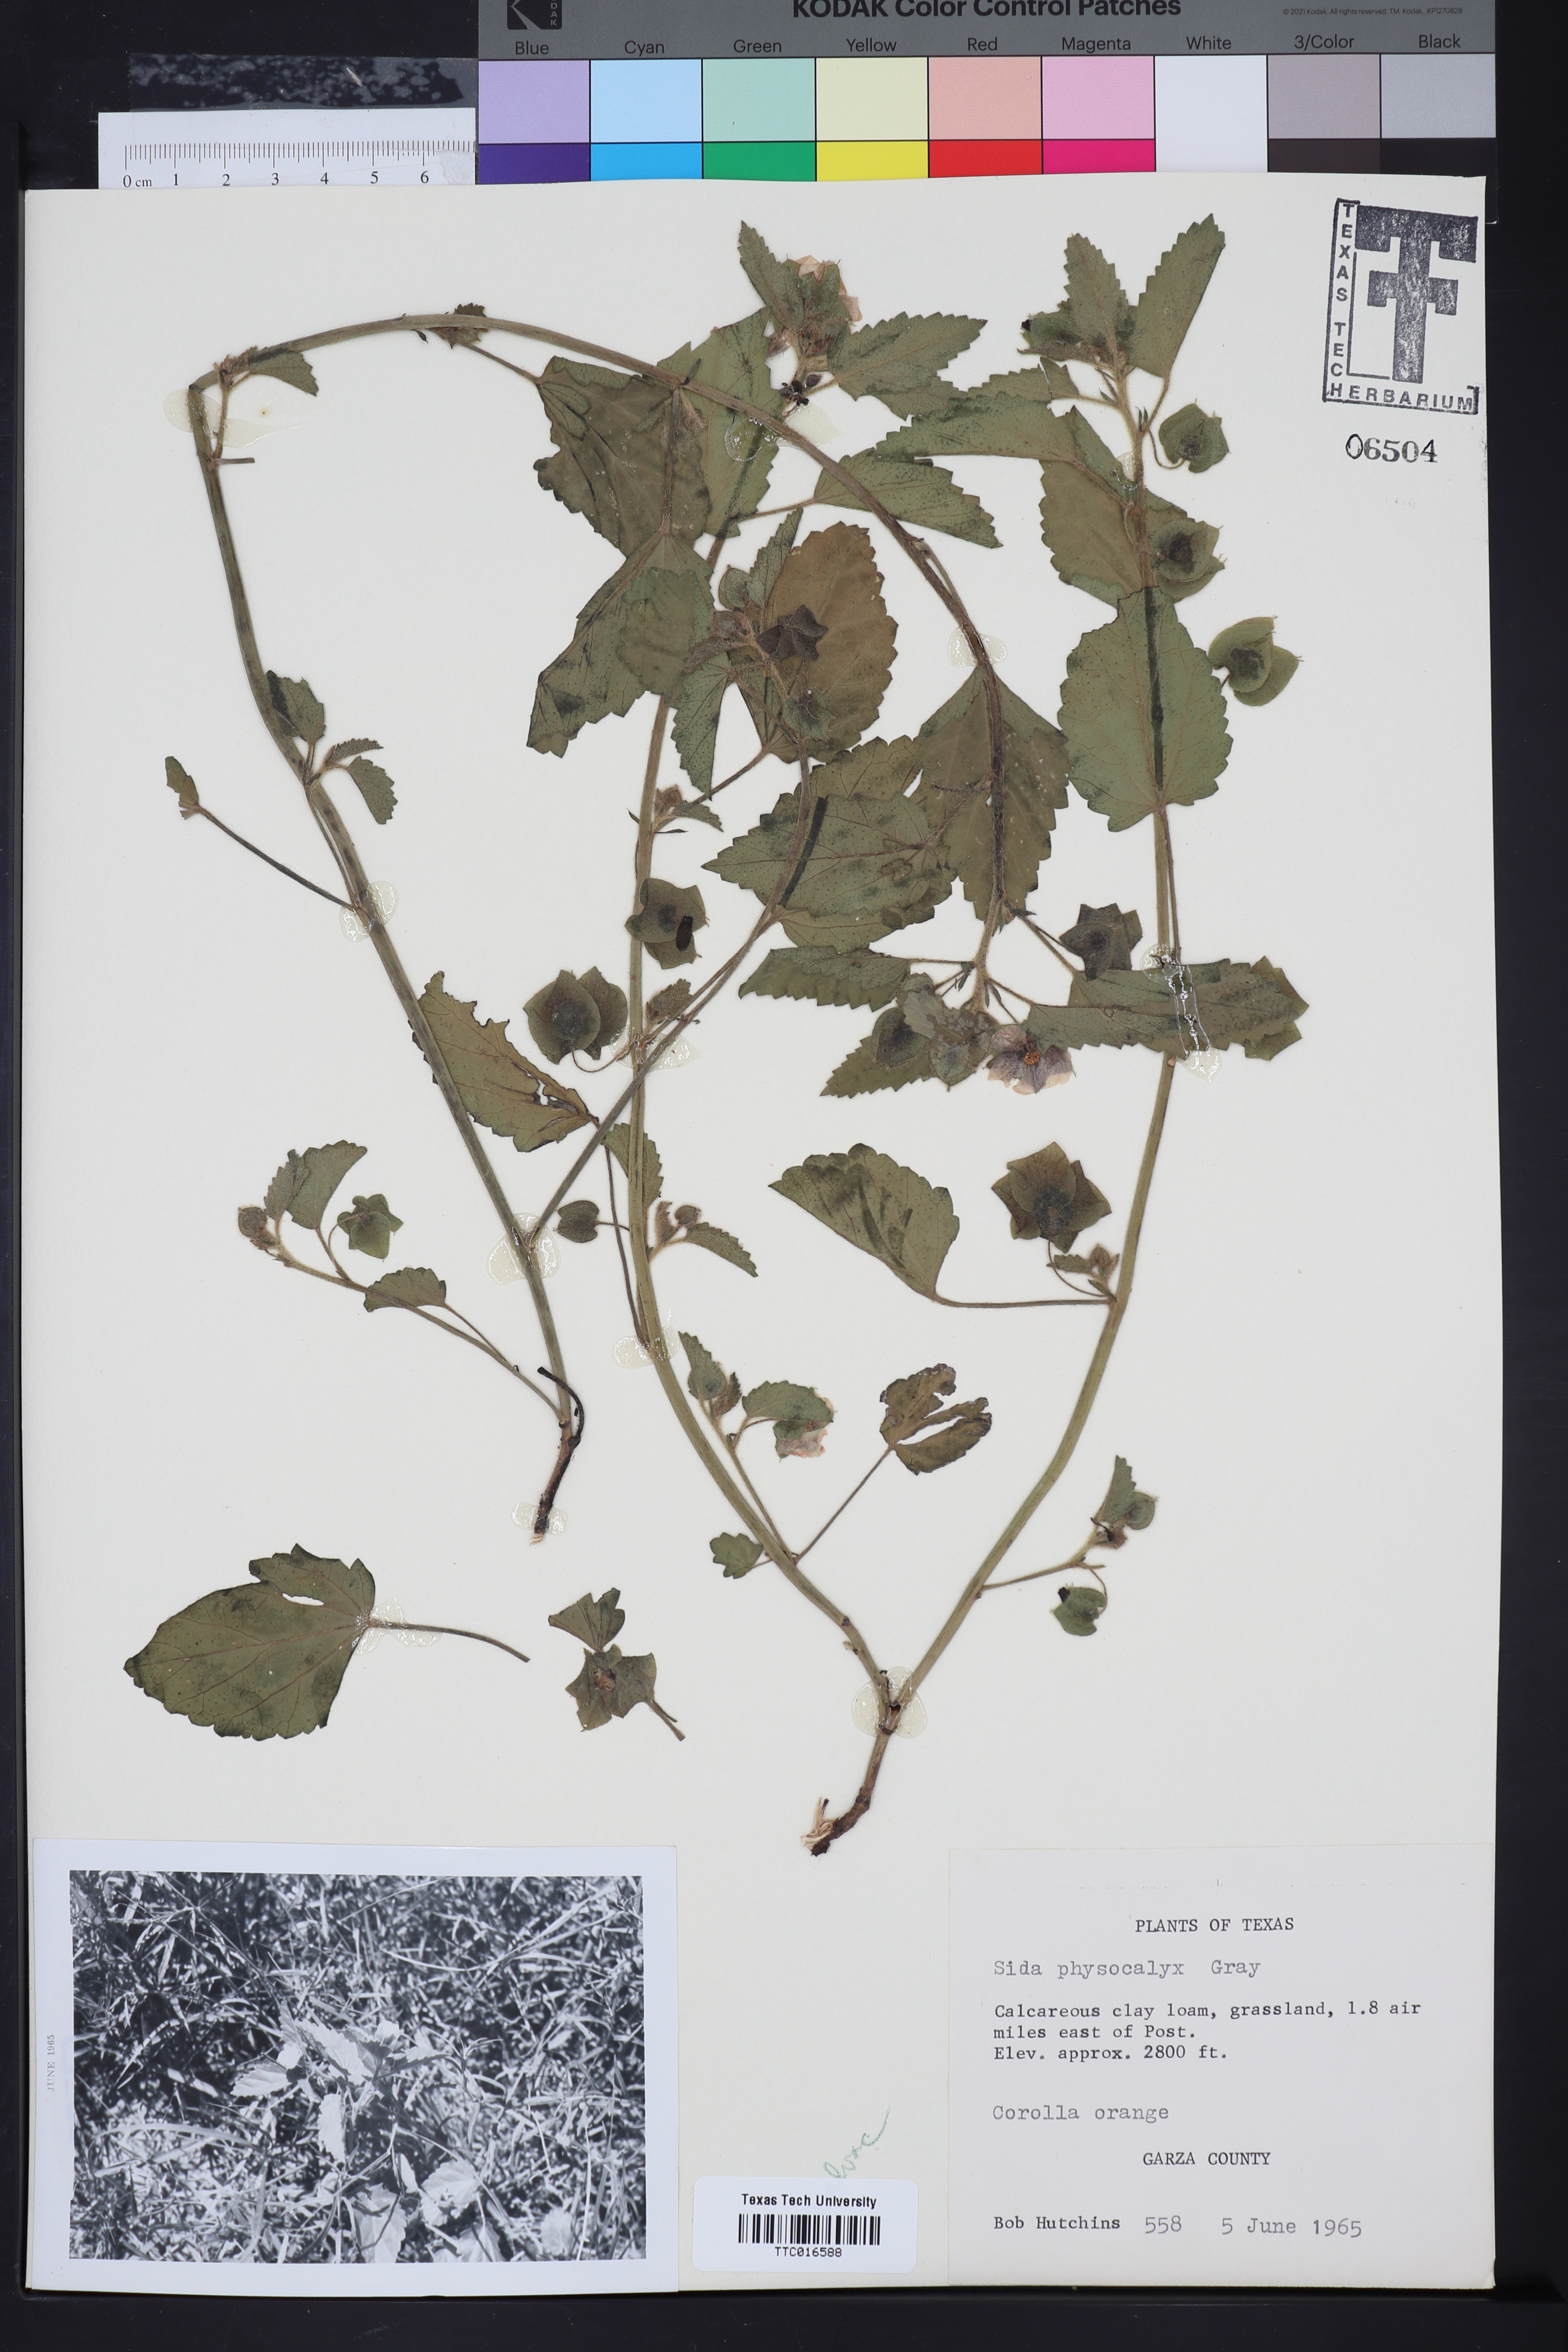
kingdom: Plantae
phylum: Tracheophyta
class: Magnoliopsida
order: Malvales
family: Malvaceae
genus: Rhynchosida
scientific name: Rhynchosida physocalyx
